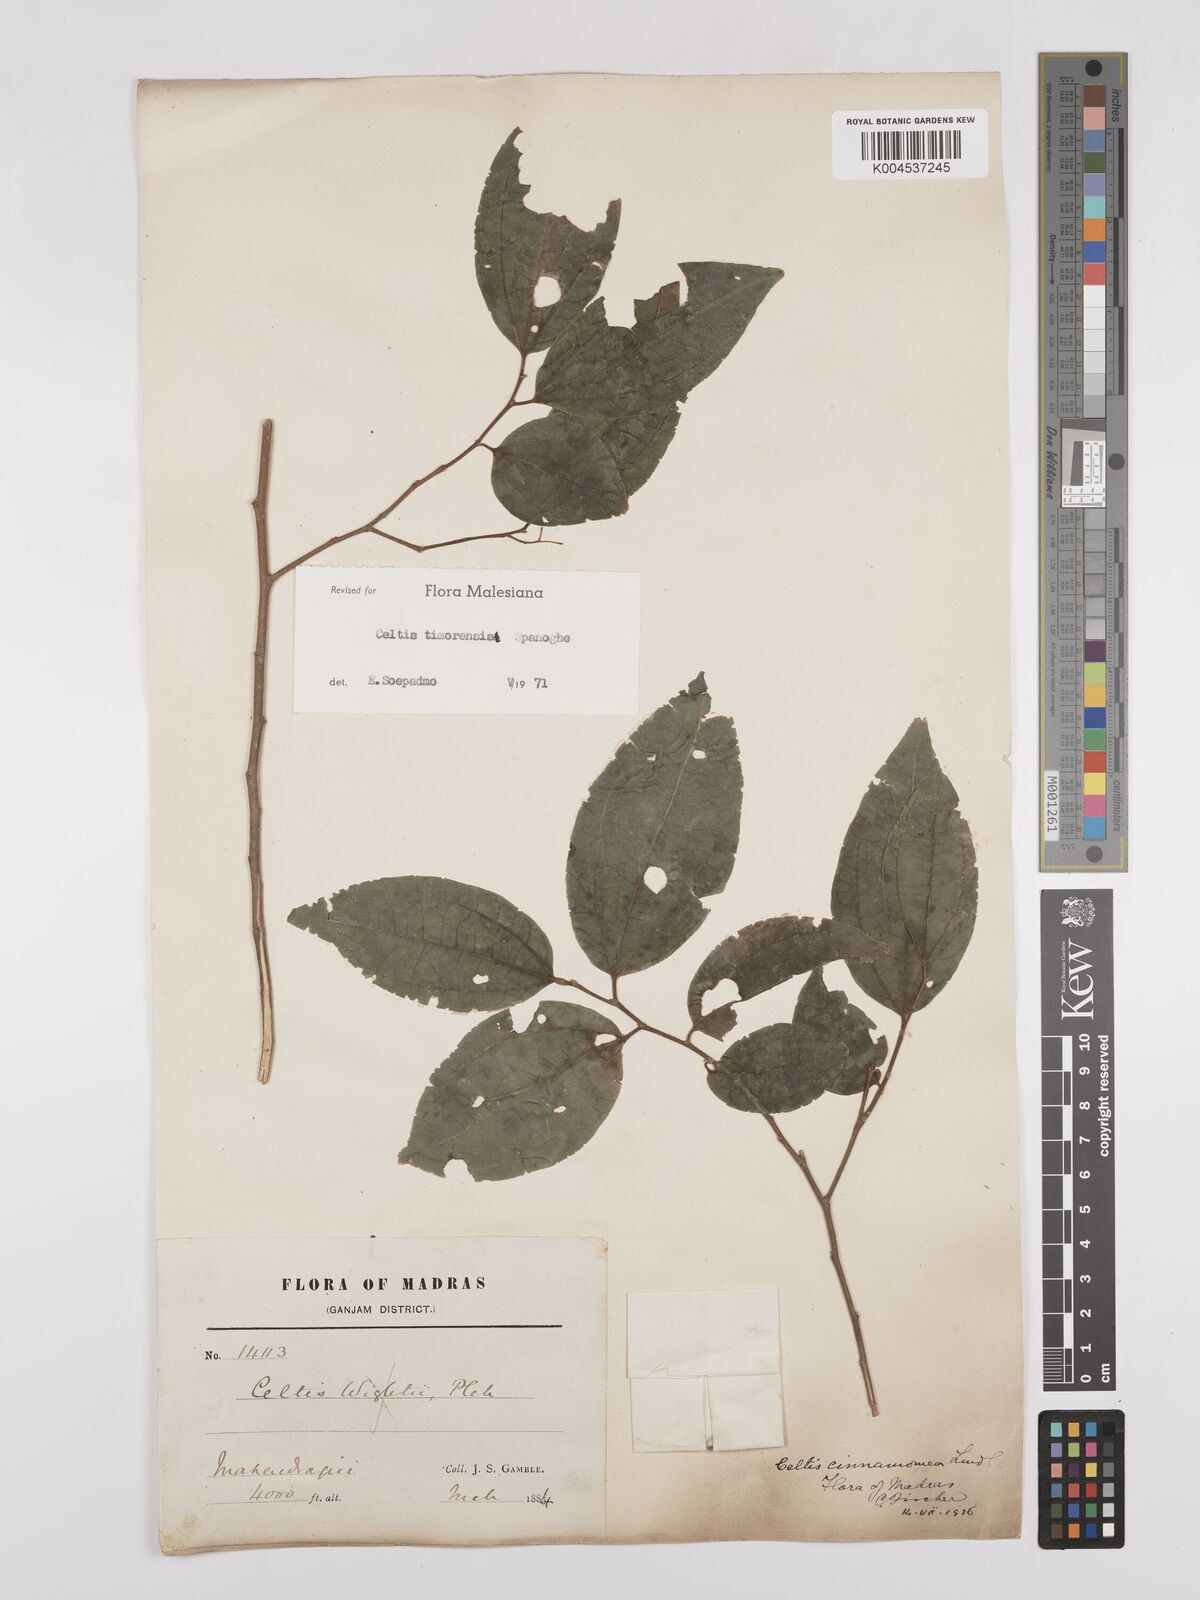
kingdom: Plantae
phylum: Tracheophyta
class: Magnoliopsida
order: Rosales
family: Cannabaceae
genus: Celtis
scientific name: Celtis timorensis
